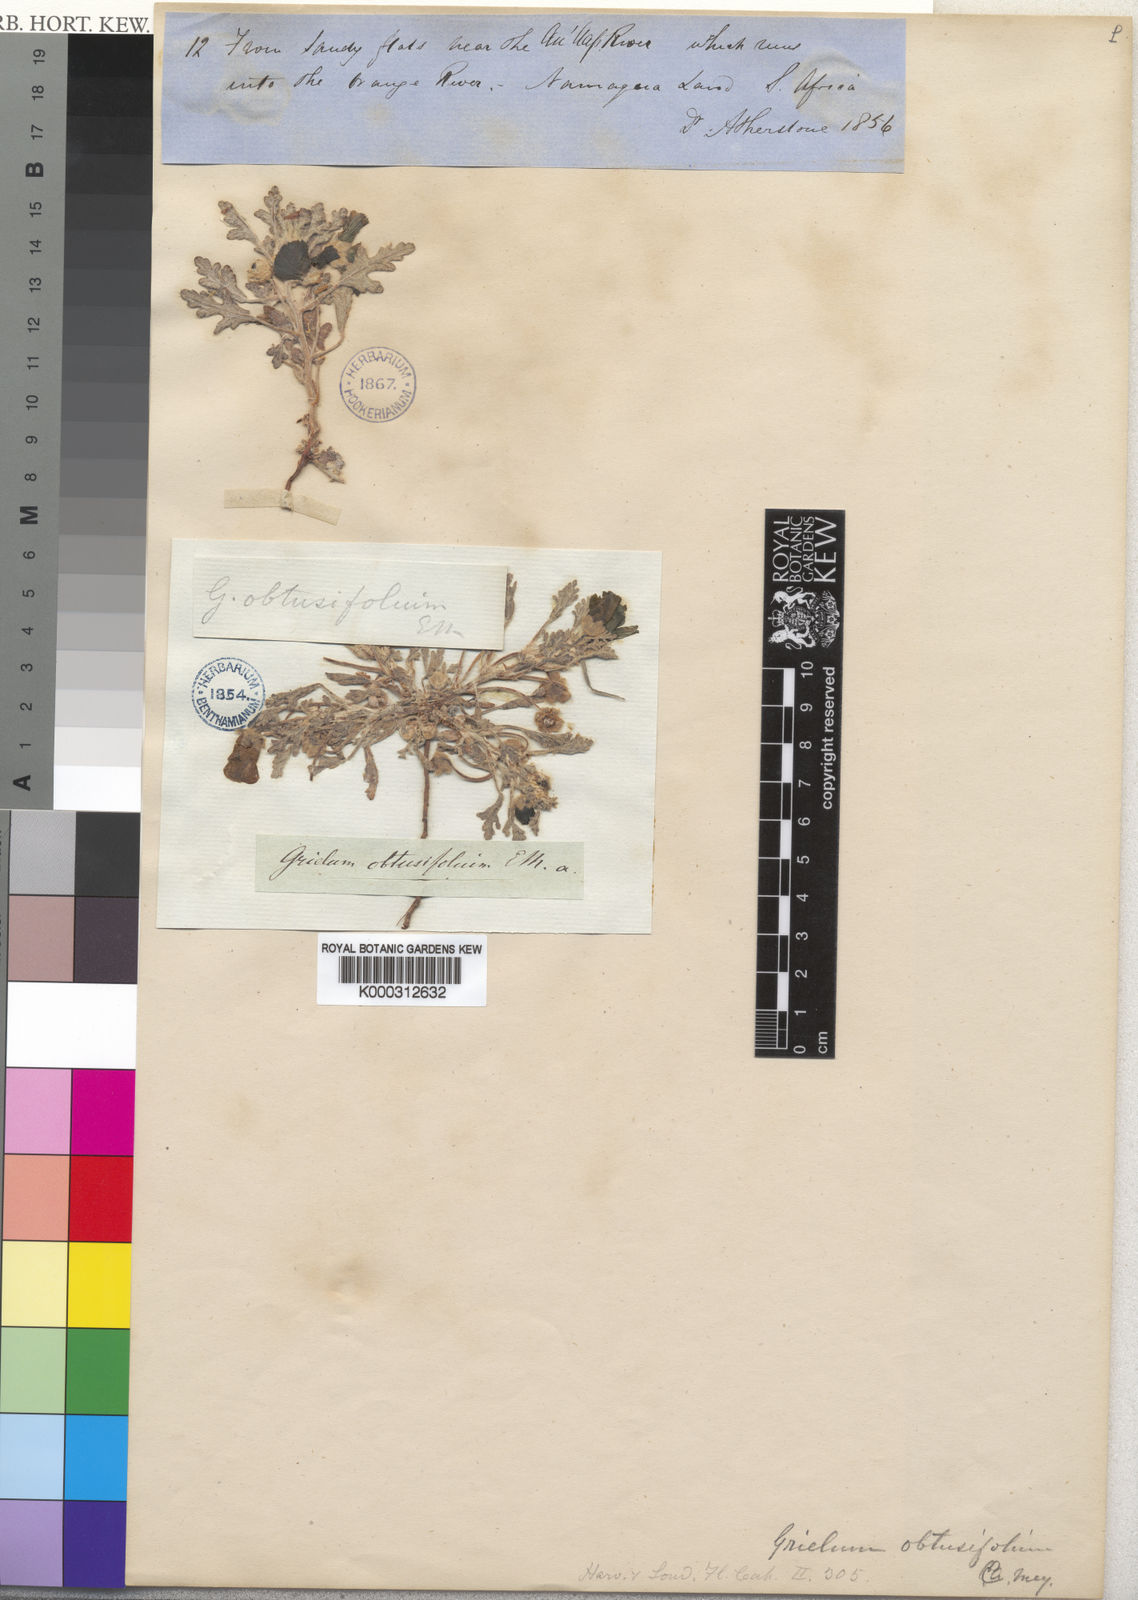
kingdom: Plantae
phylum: Tracheophyta
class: Magnoliopsida
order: Malvales
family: Neuradaceae
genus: Grielum
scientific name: Grielum
